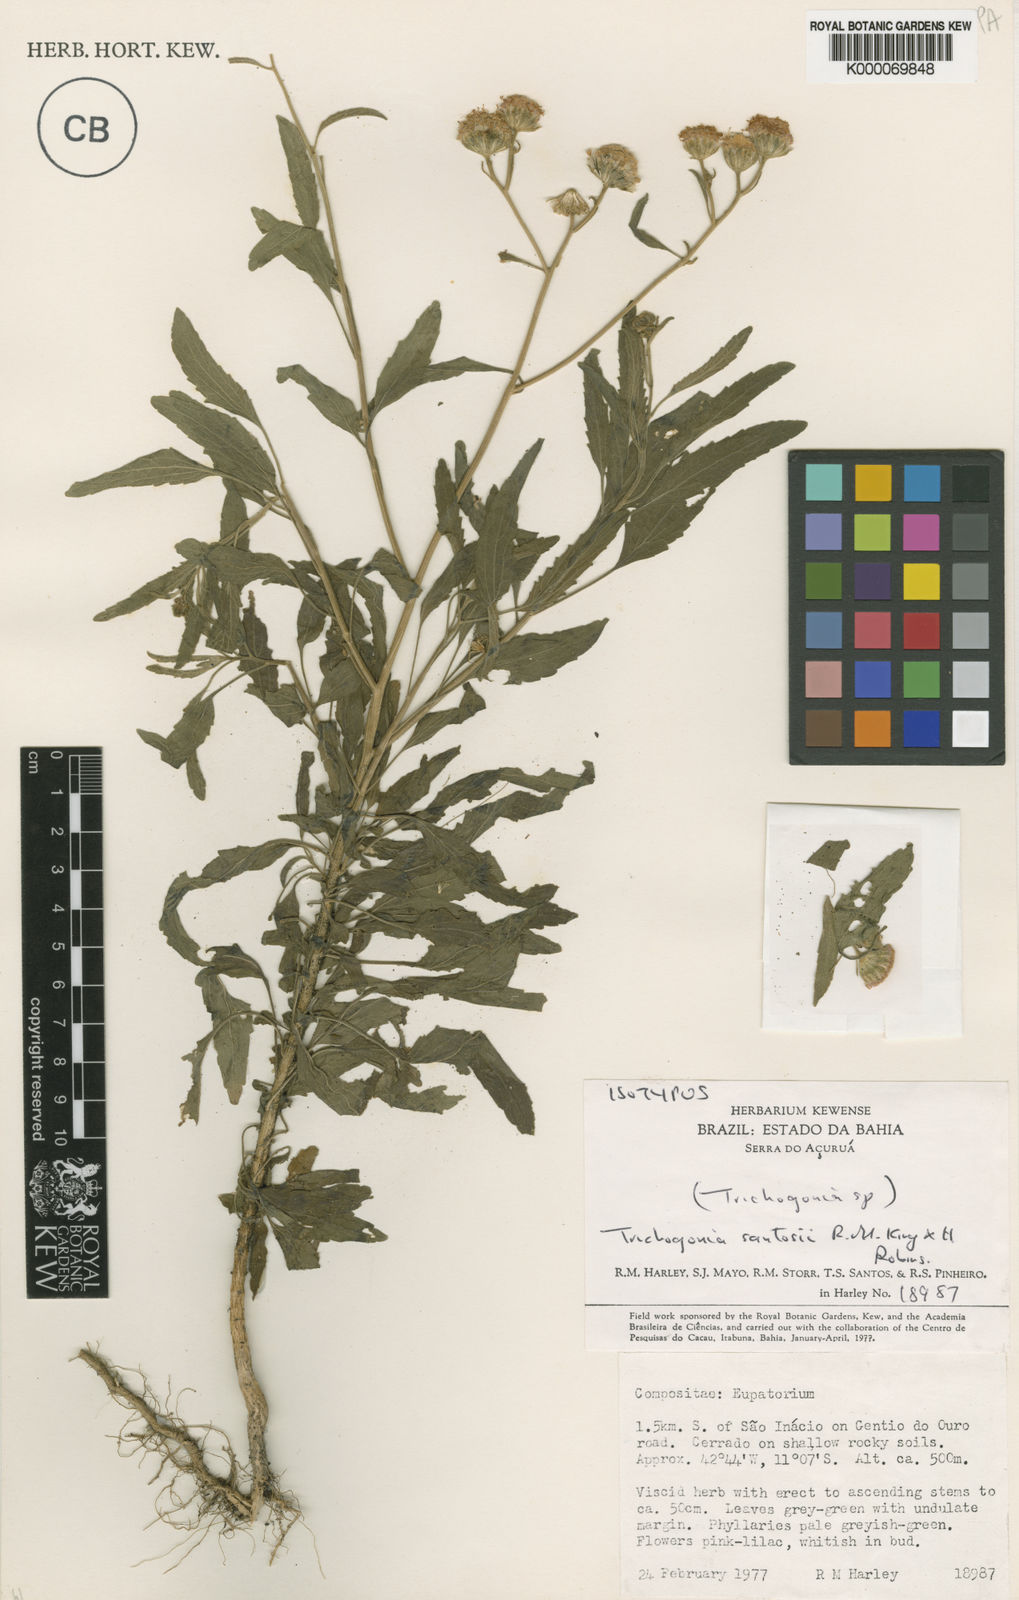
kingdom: Plantae
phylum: Tracheophyta
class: Magnoliopsida
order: Asterales
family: Asteraceae
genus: Trichogonia
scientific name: Trichogonia santosii
